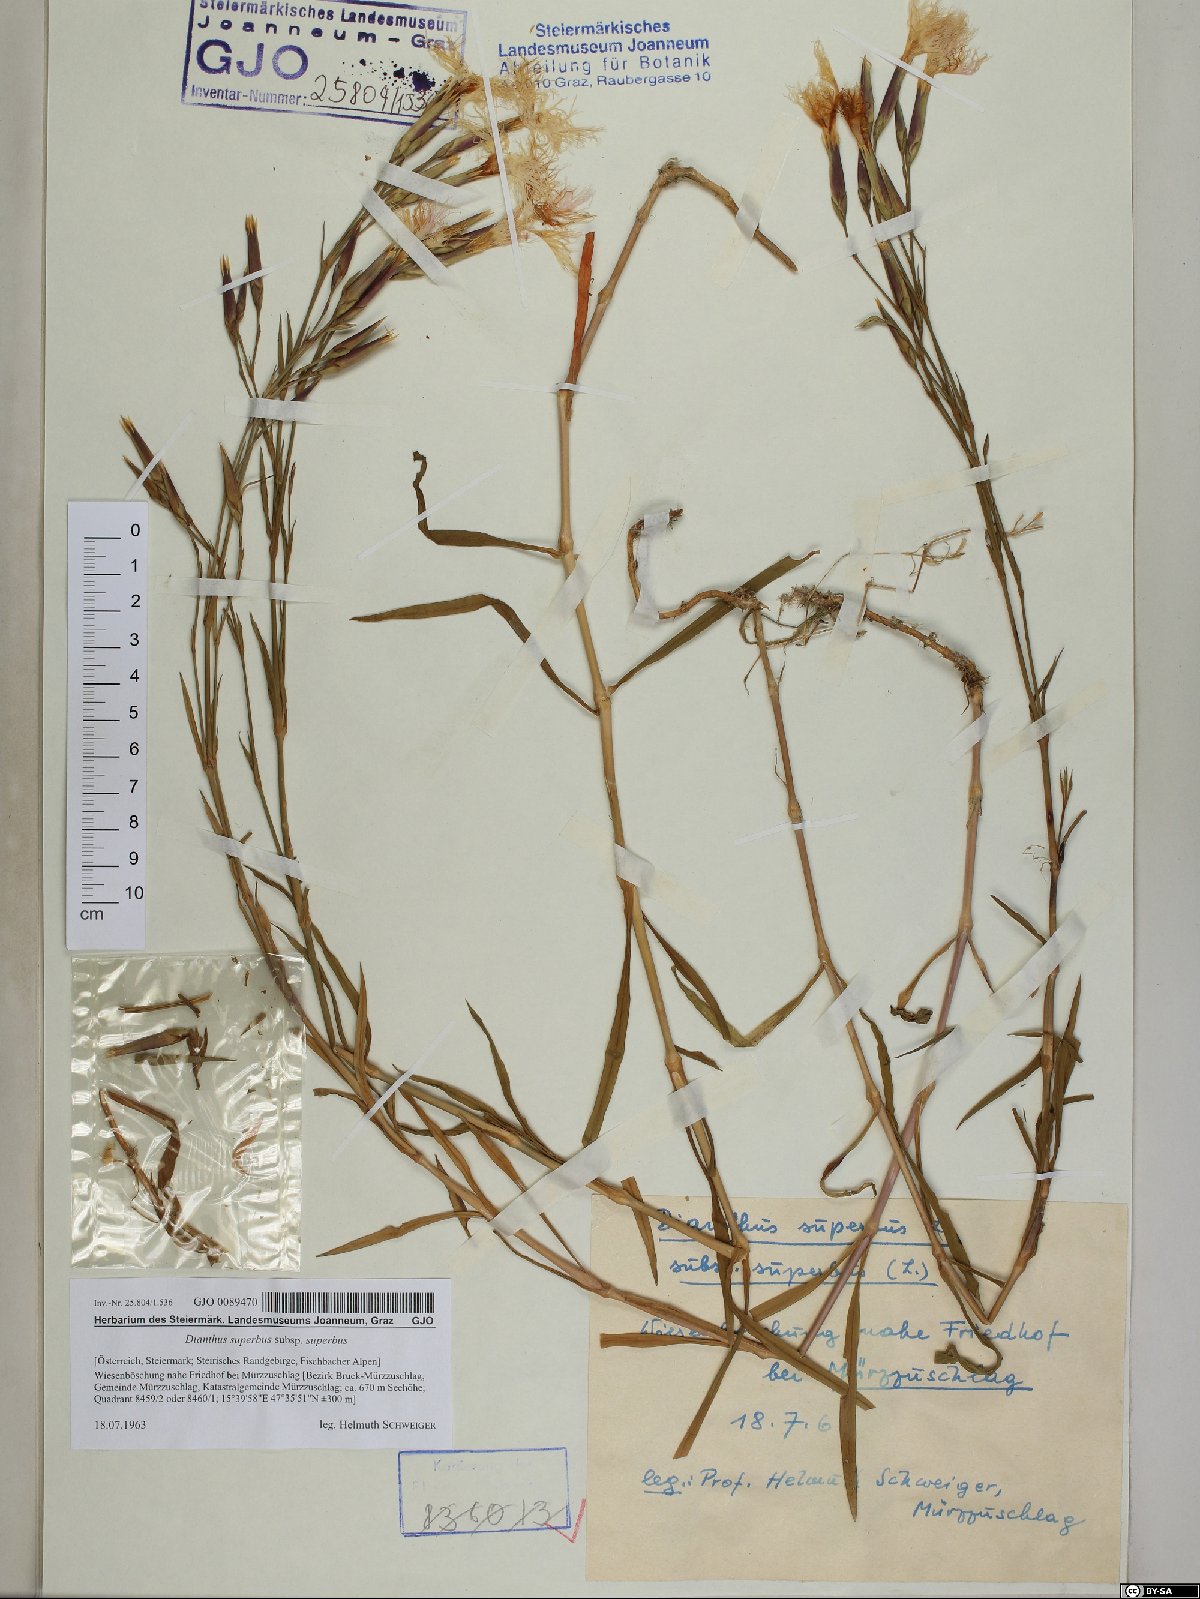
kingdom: Plantae
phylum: Tracheophyta
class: Magnoliopsida
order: Caryophyllales
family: Caryophyllaceae
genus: Dianthus
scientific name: Dianthus superbus
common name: Fringed pink
